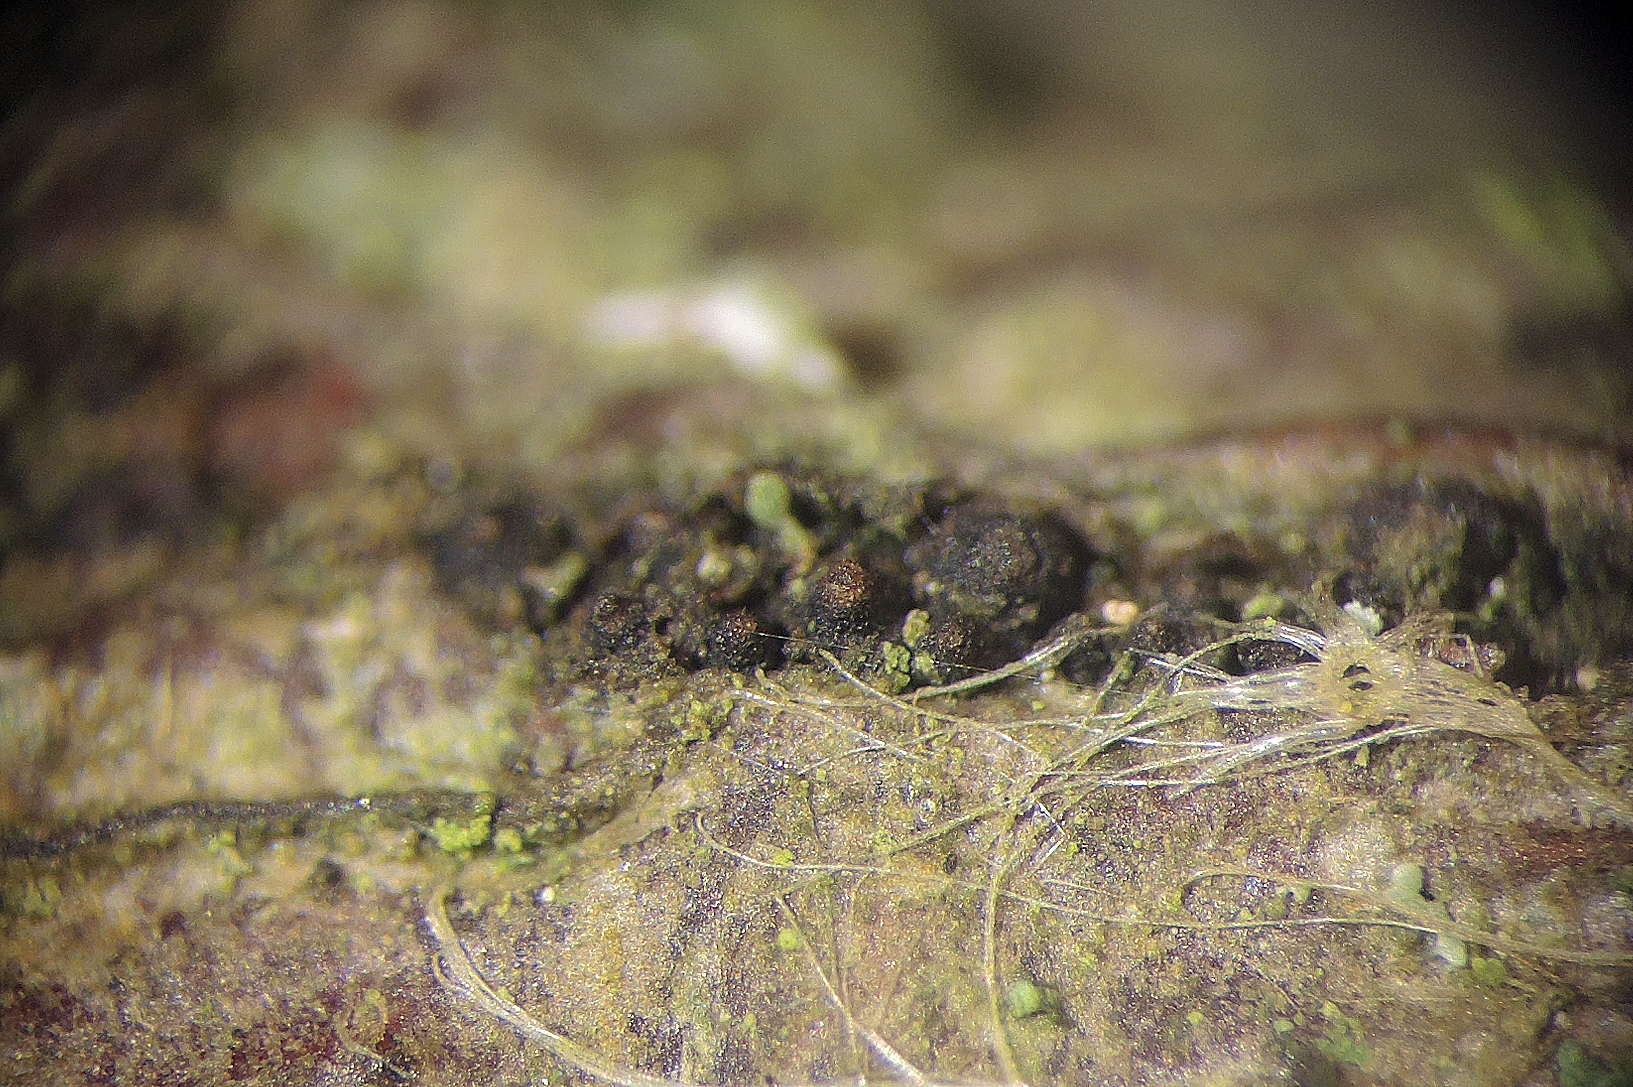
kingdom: Fungi
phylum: Ascomycota
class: Dothideomycetes
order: Pleosporales
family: Teichosporaceae
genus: Magnibotryascoma
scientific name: Magnibotryascoma rubriostiolatum
